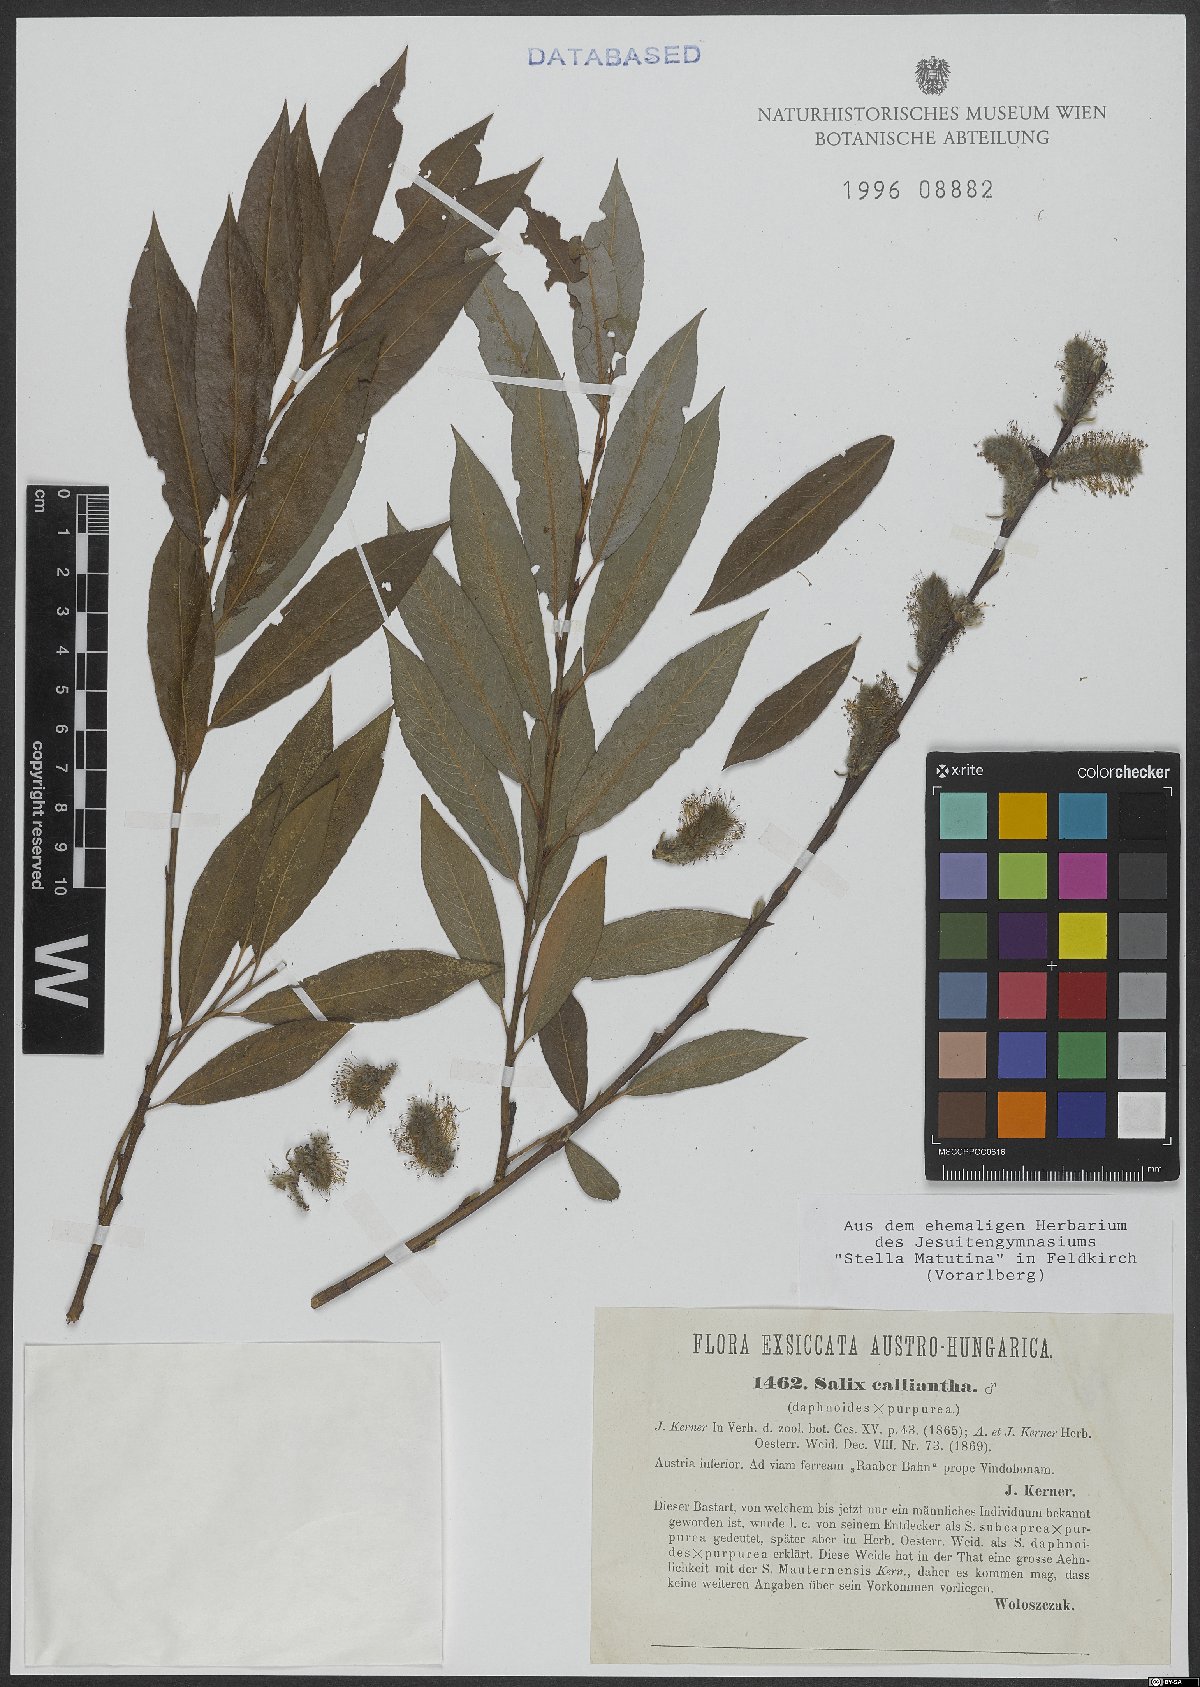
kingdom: Plantae
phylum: Tracheophyta
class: Magnoliopsida
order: Malpighiales
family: Salicaceae
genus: Salix
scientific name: Salix calliantha
